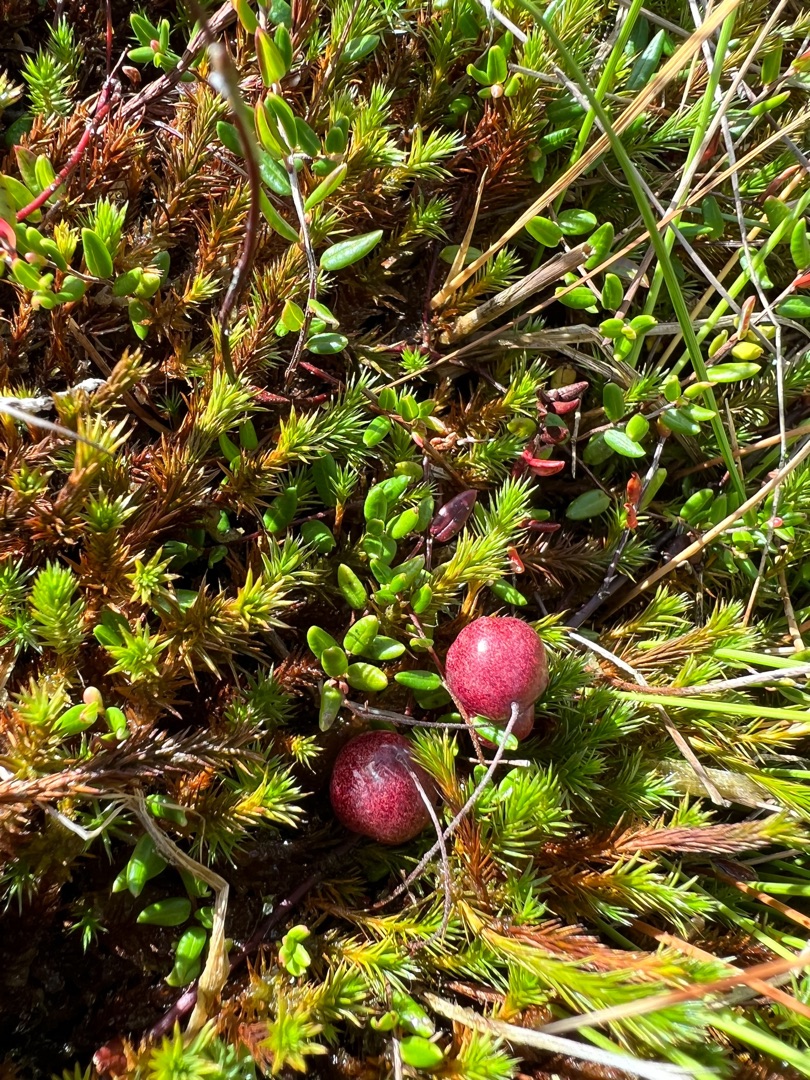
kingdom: Plantae
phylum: Tracheophyta
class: Magnoliopsida
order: Ericales
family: Ericaceae
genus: Vaccinium
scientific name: Vaccinium oxycoccos
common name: Tranebær
